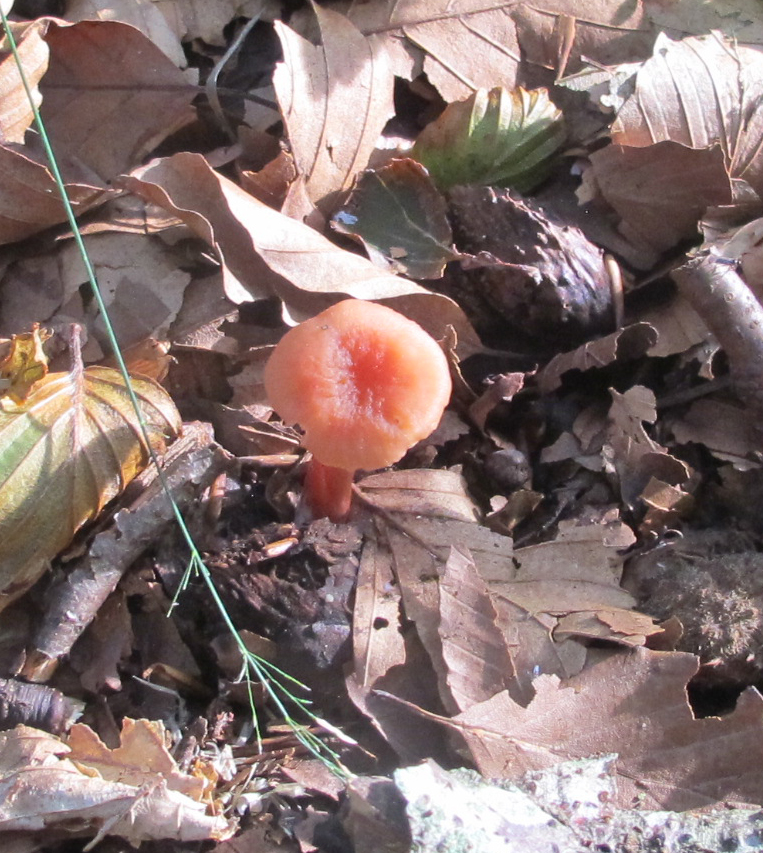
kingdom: Fungi
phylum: Basidiomycota
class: Agaricomycetes
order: Agaricales
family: Hydnangiaceae
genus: Laccaria
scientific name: Laccaria laccata
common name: rød ametysthat
